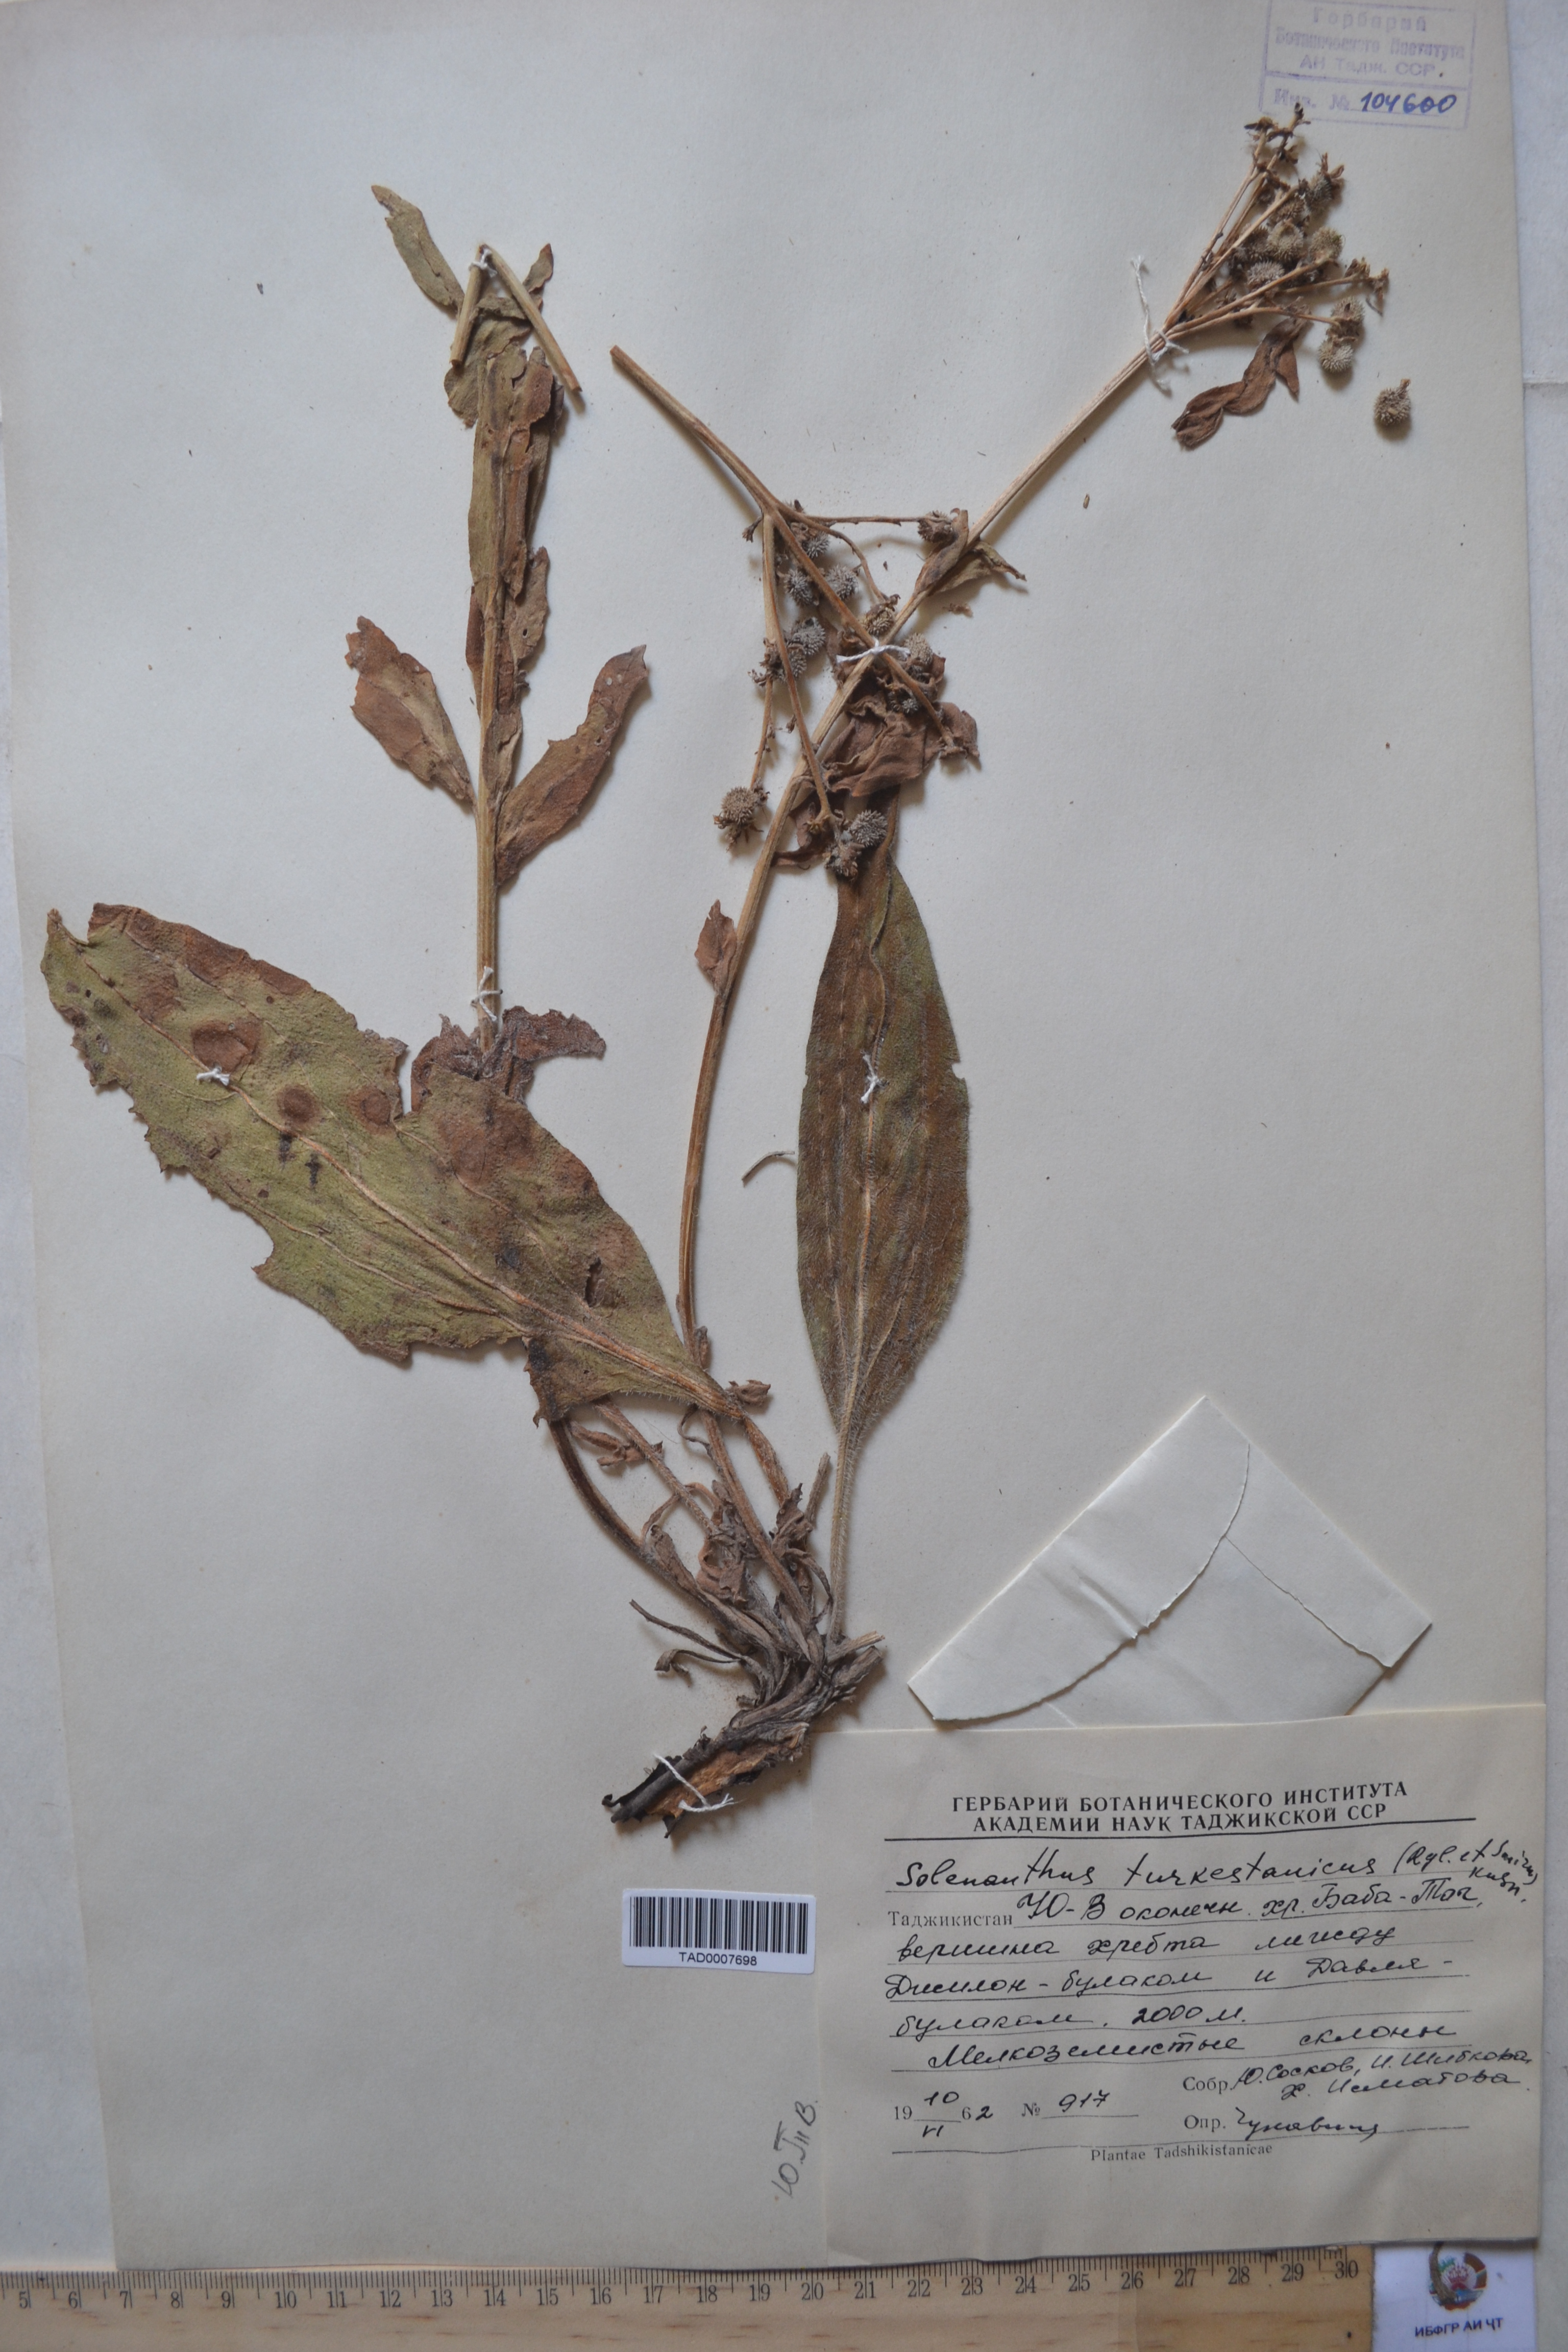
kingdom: Plantae
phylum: Tracheophyta
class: Magnoliopsida
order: Boraginales
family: Boraginaceae
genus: Solenanthus
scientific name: Solenanthus turkestanicus
